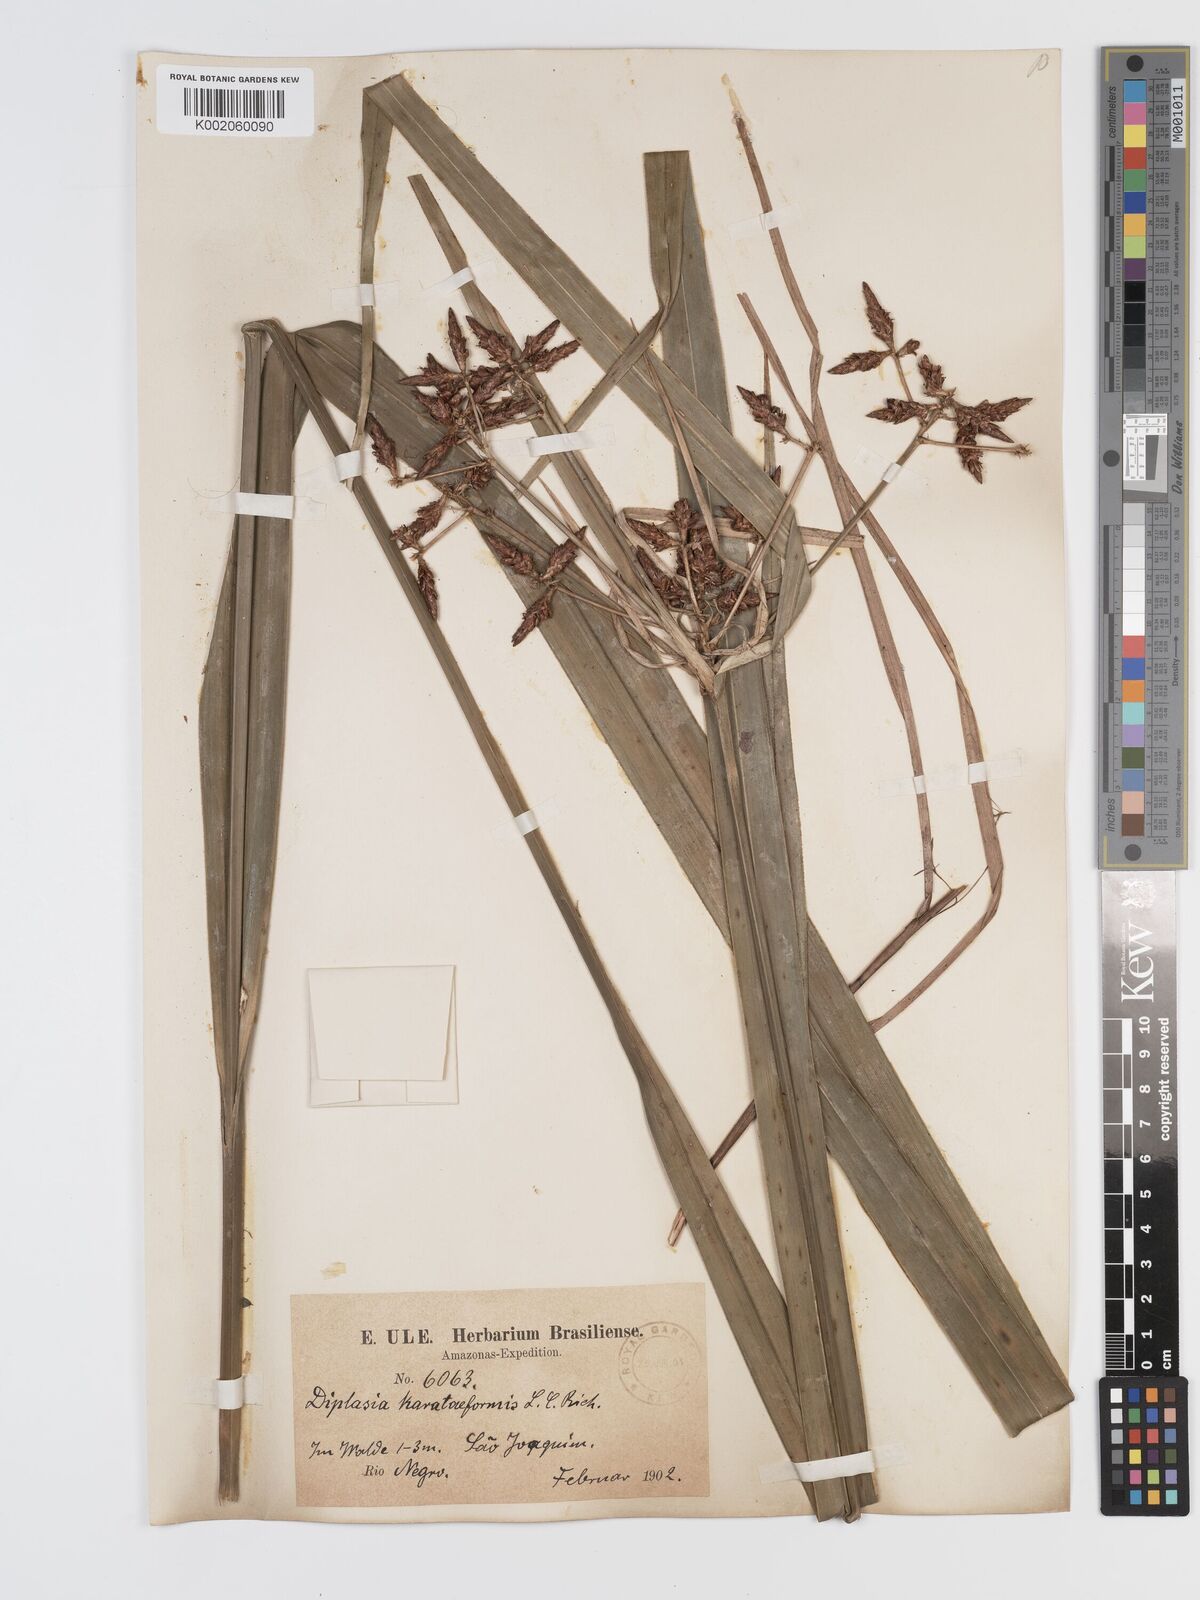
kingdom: Plantae
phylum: Tracheophyta
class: Liliopsida
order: Poales
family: Cyperaceae
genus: Diplasia
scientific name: Diplasia karatifolia
